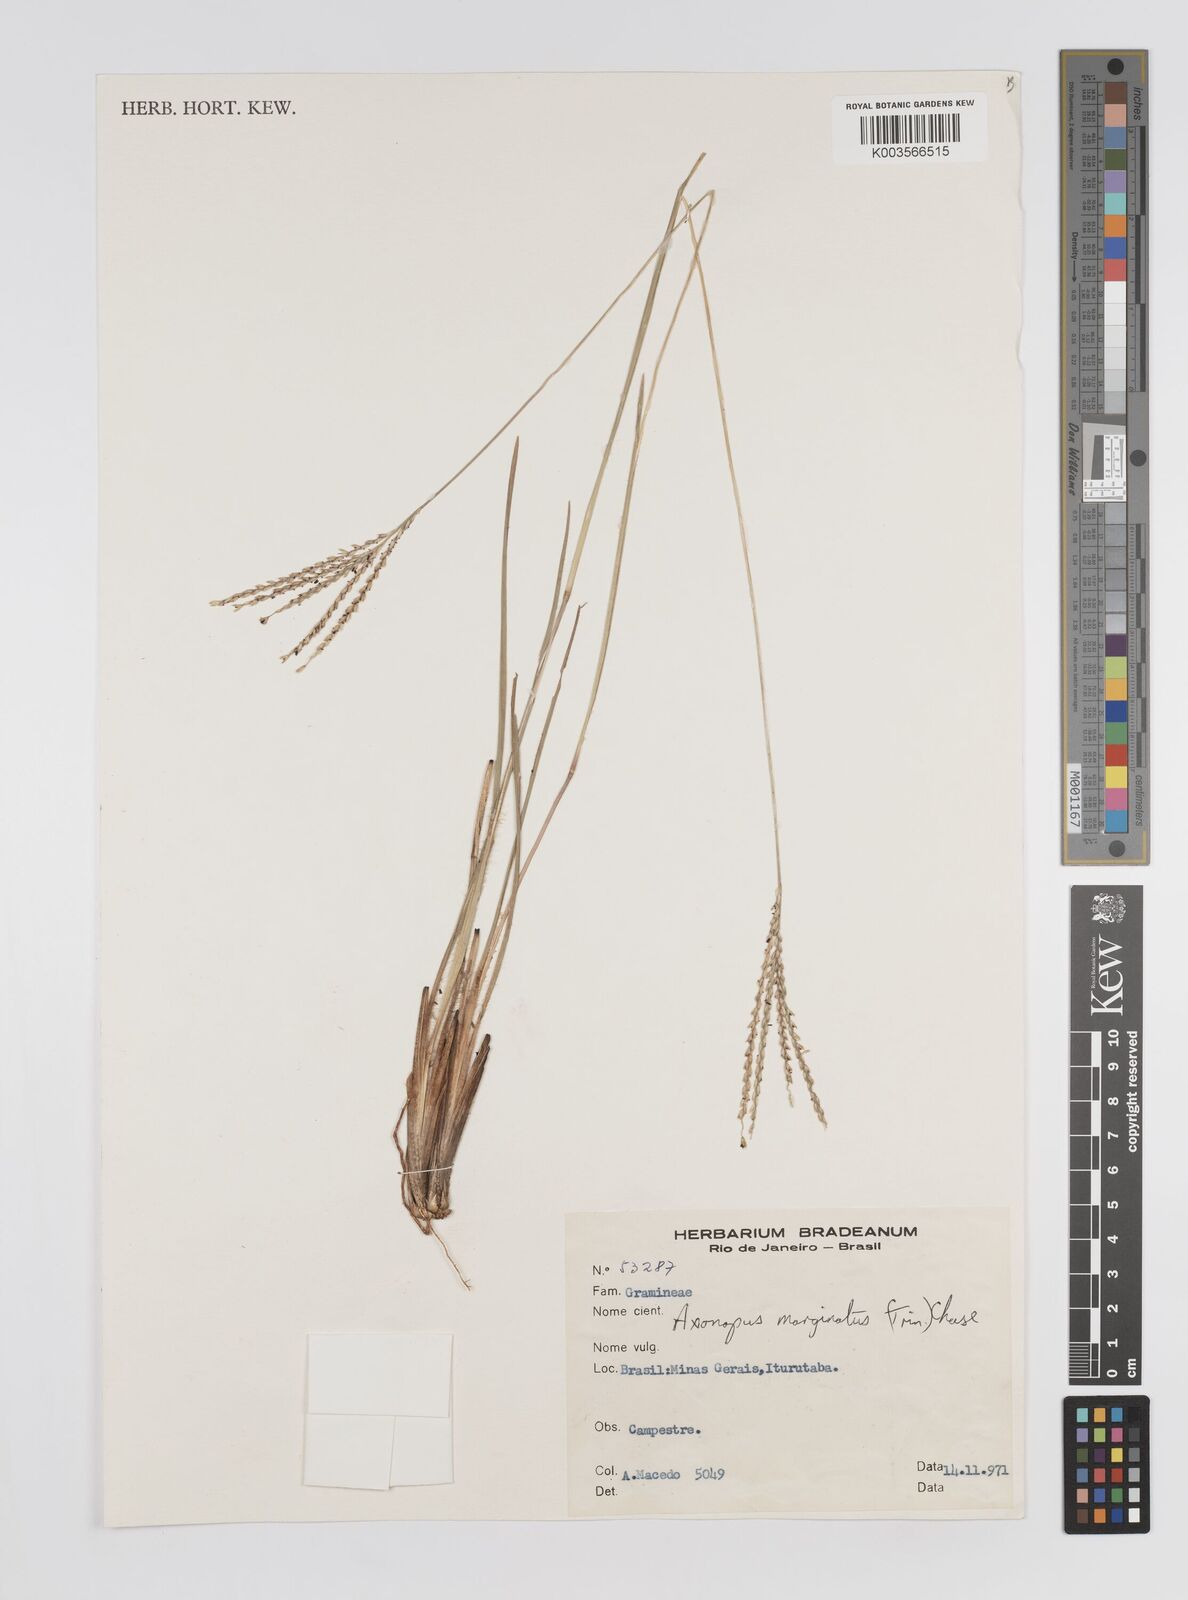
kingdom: Plantae
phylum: Tracheophyta
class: Liliopsida
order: Poales
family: Poaceae
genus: Axonopus
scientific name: Axonopus marginatus
